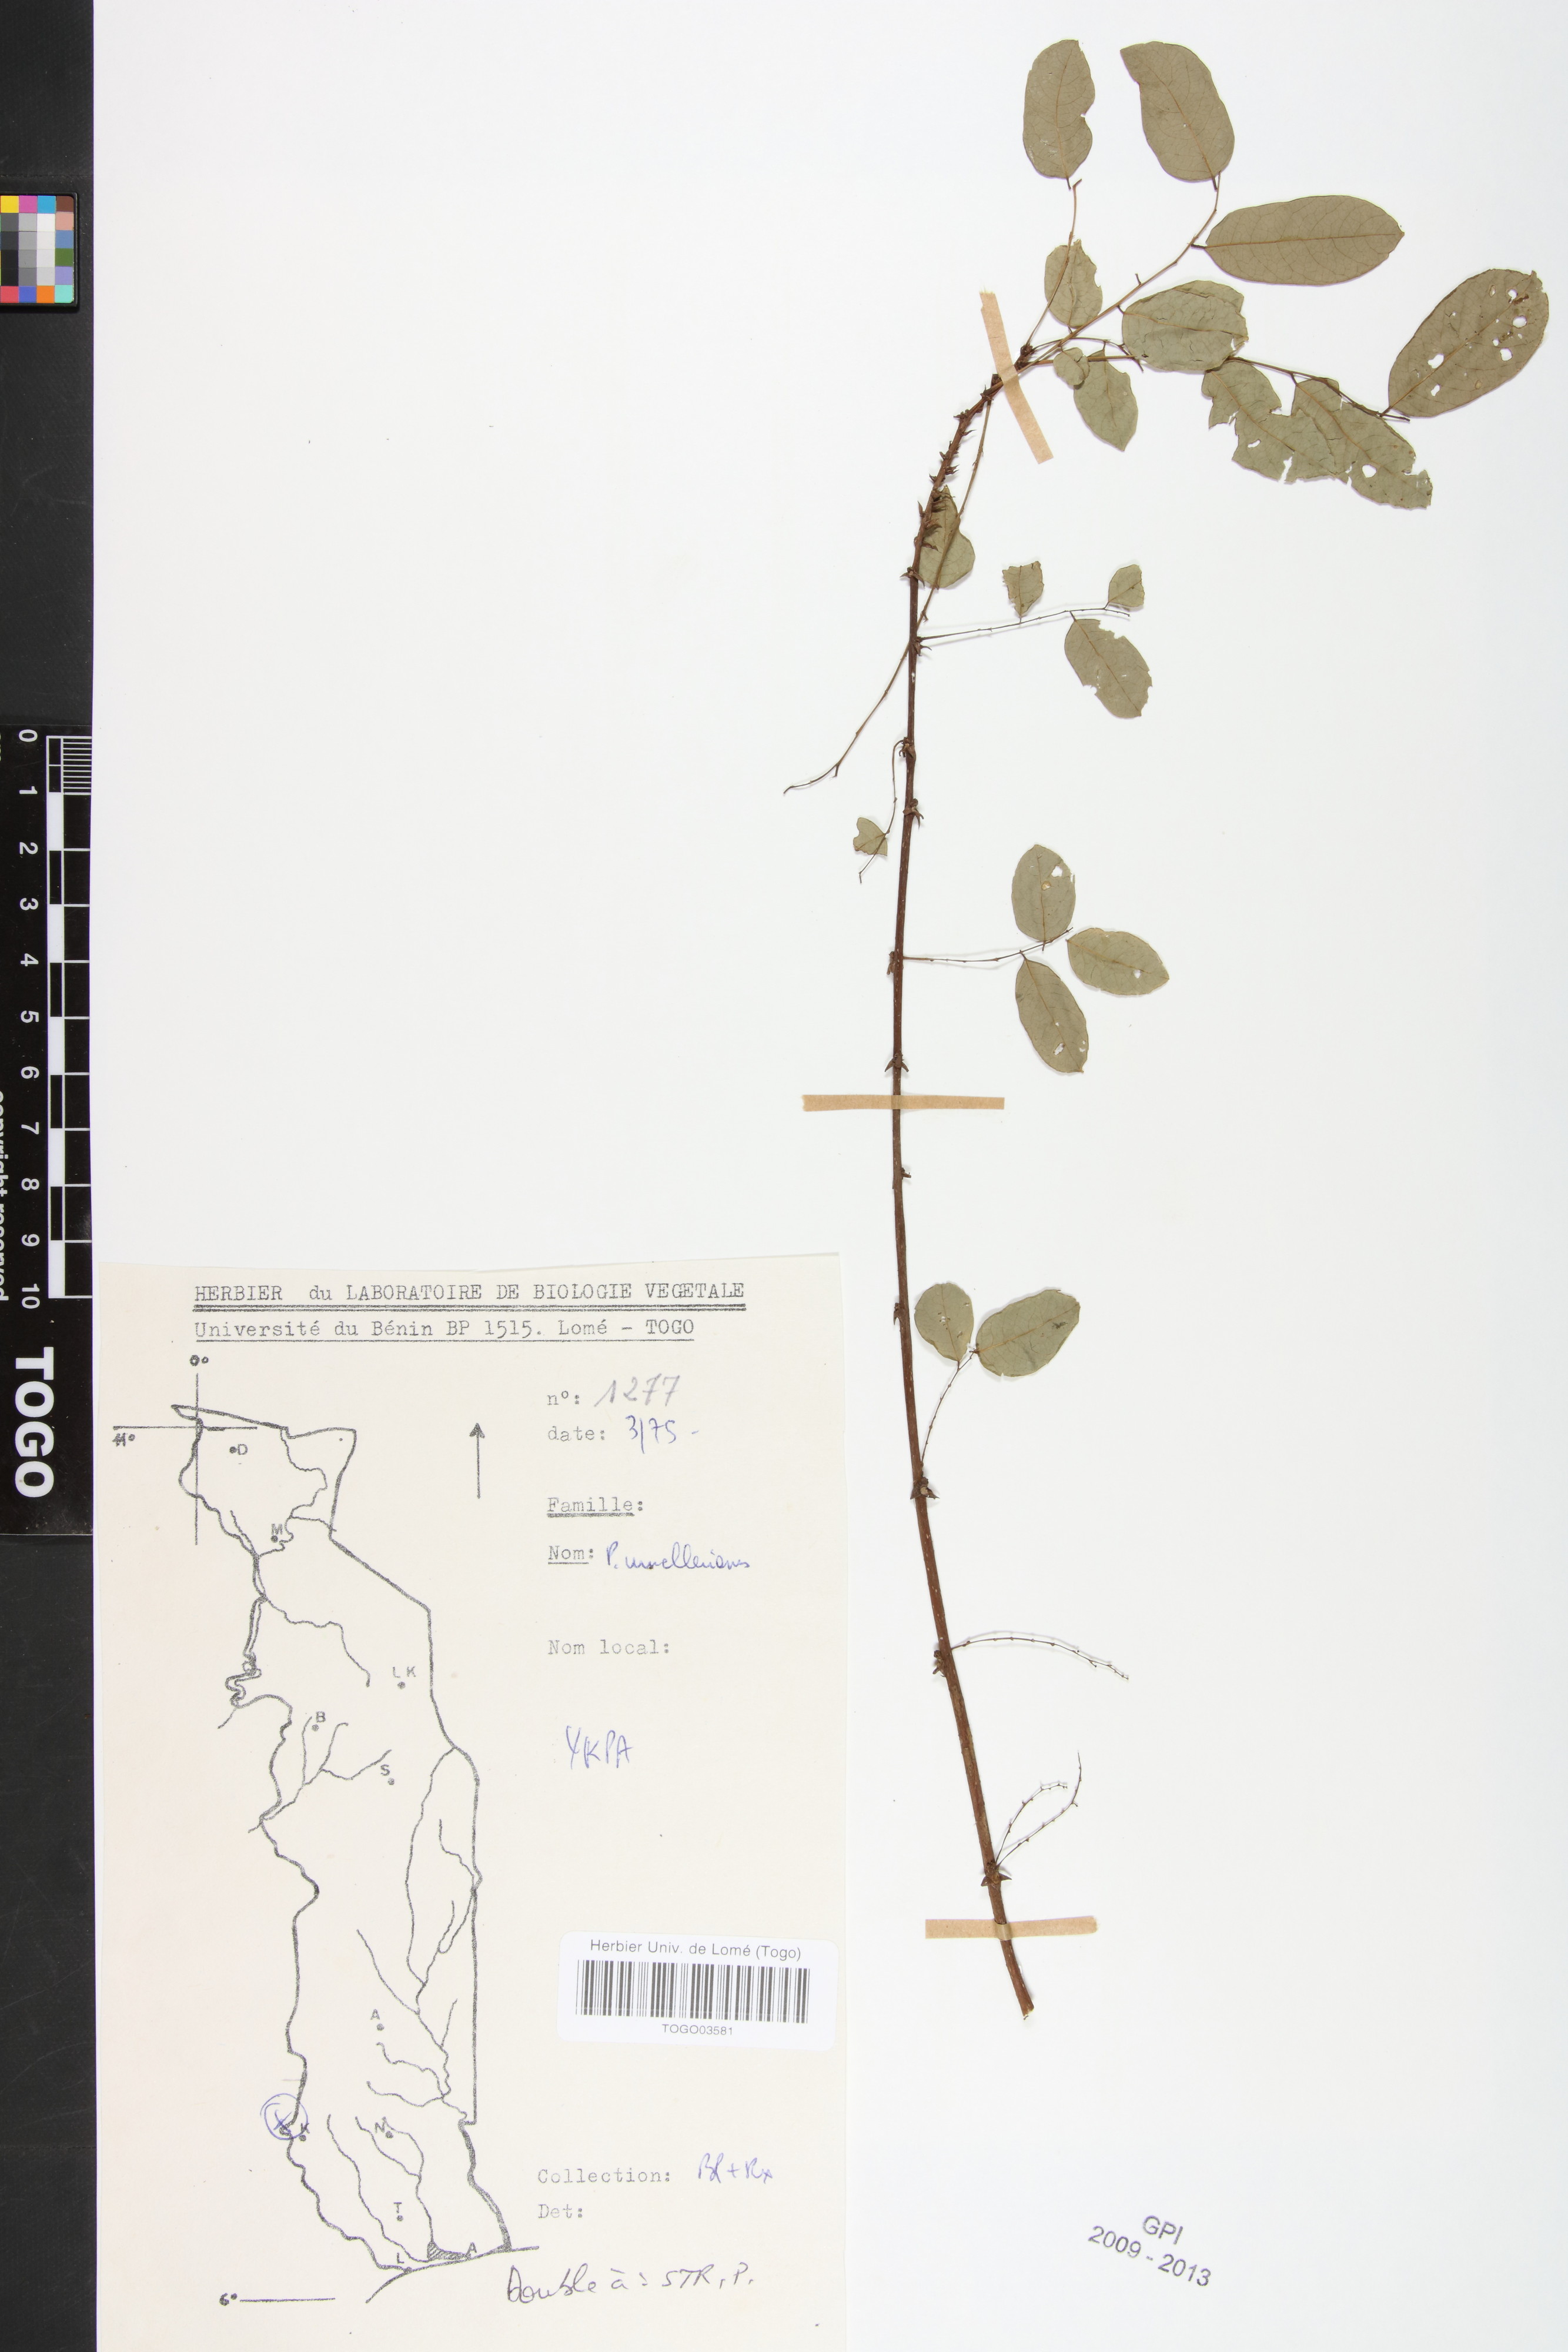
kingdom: Plantae
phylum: Tracheophyta
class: Magnoliopsida
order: Malpighiales
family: Phyllanthaceae
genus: Phyllanthus
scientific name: Phyllanthus muellerianus
